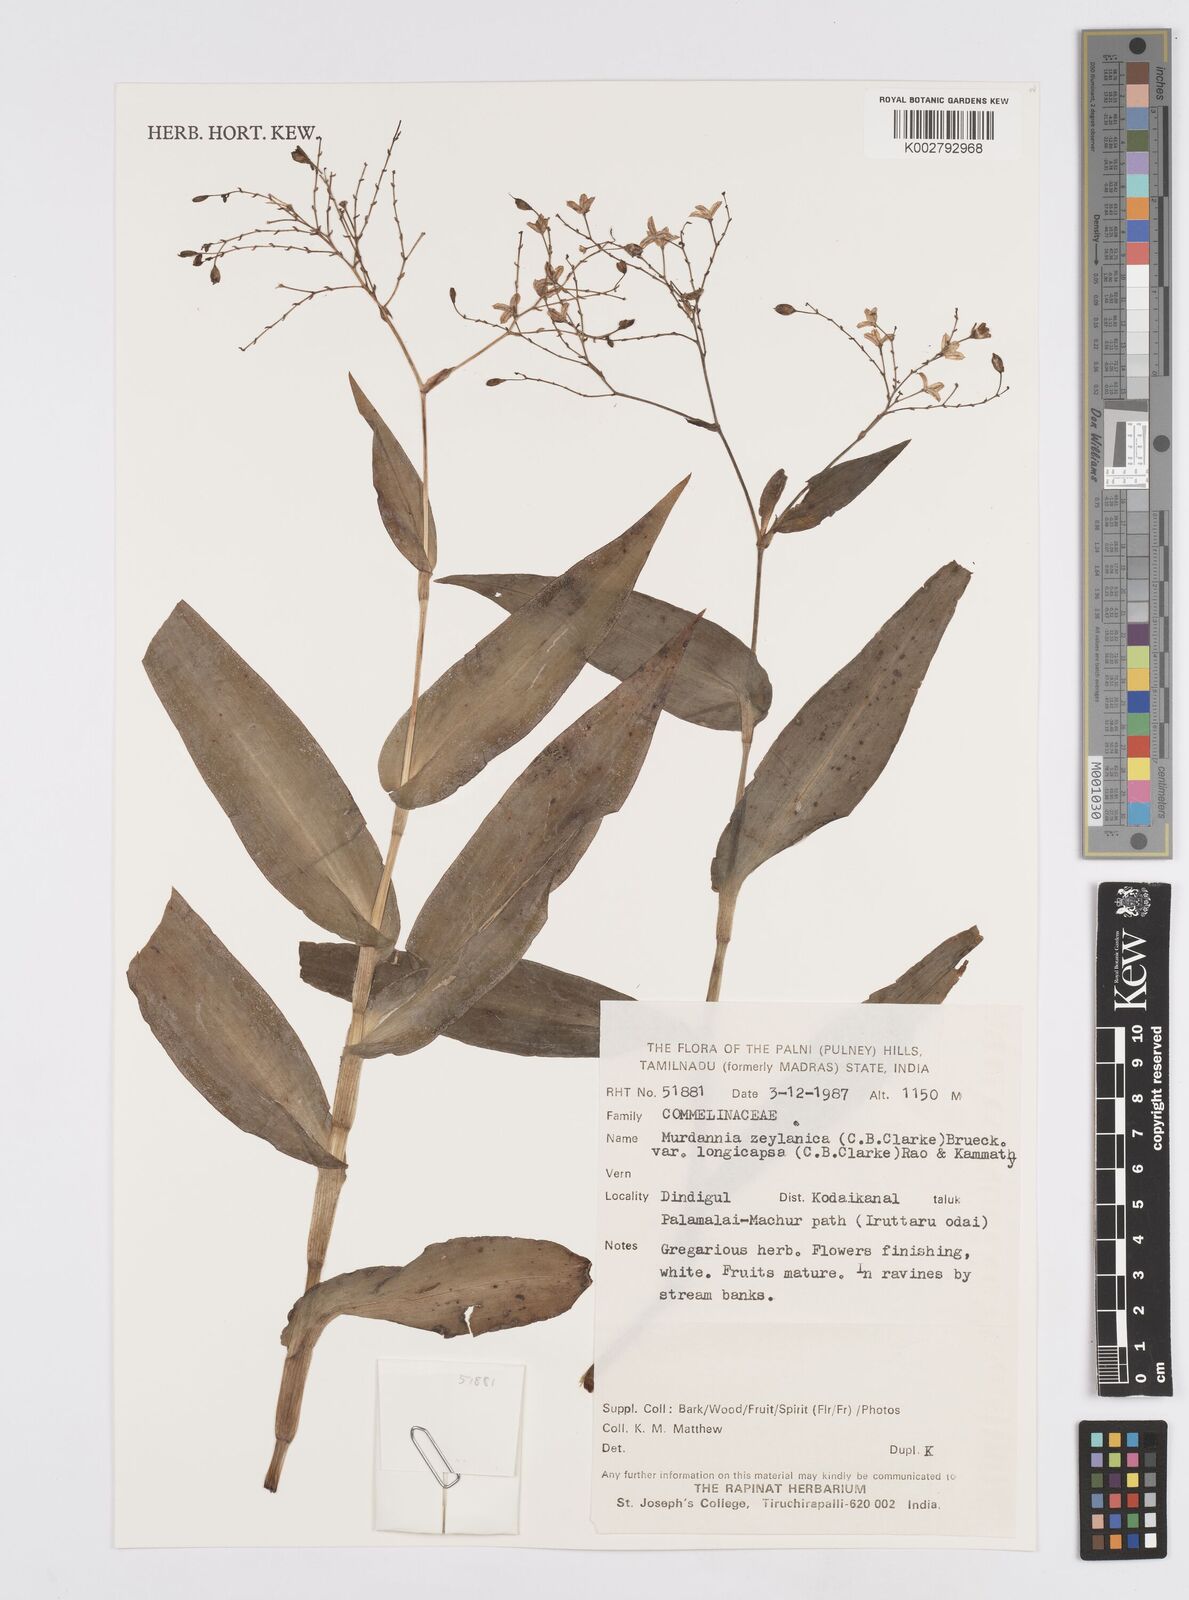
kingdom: Plantae
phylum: Tracheophyta
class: Liliopsida
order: Commelinales
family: Commelinaceae
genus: Murdannia
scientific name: Murdannia zeylanica
